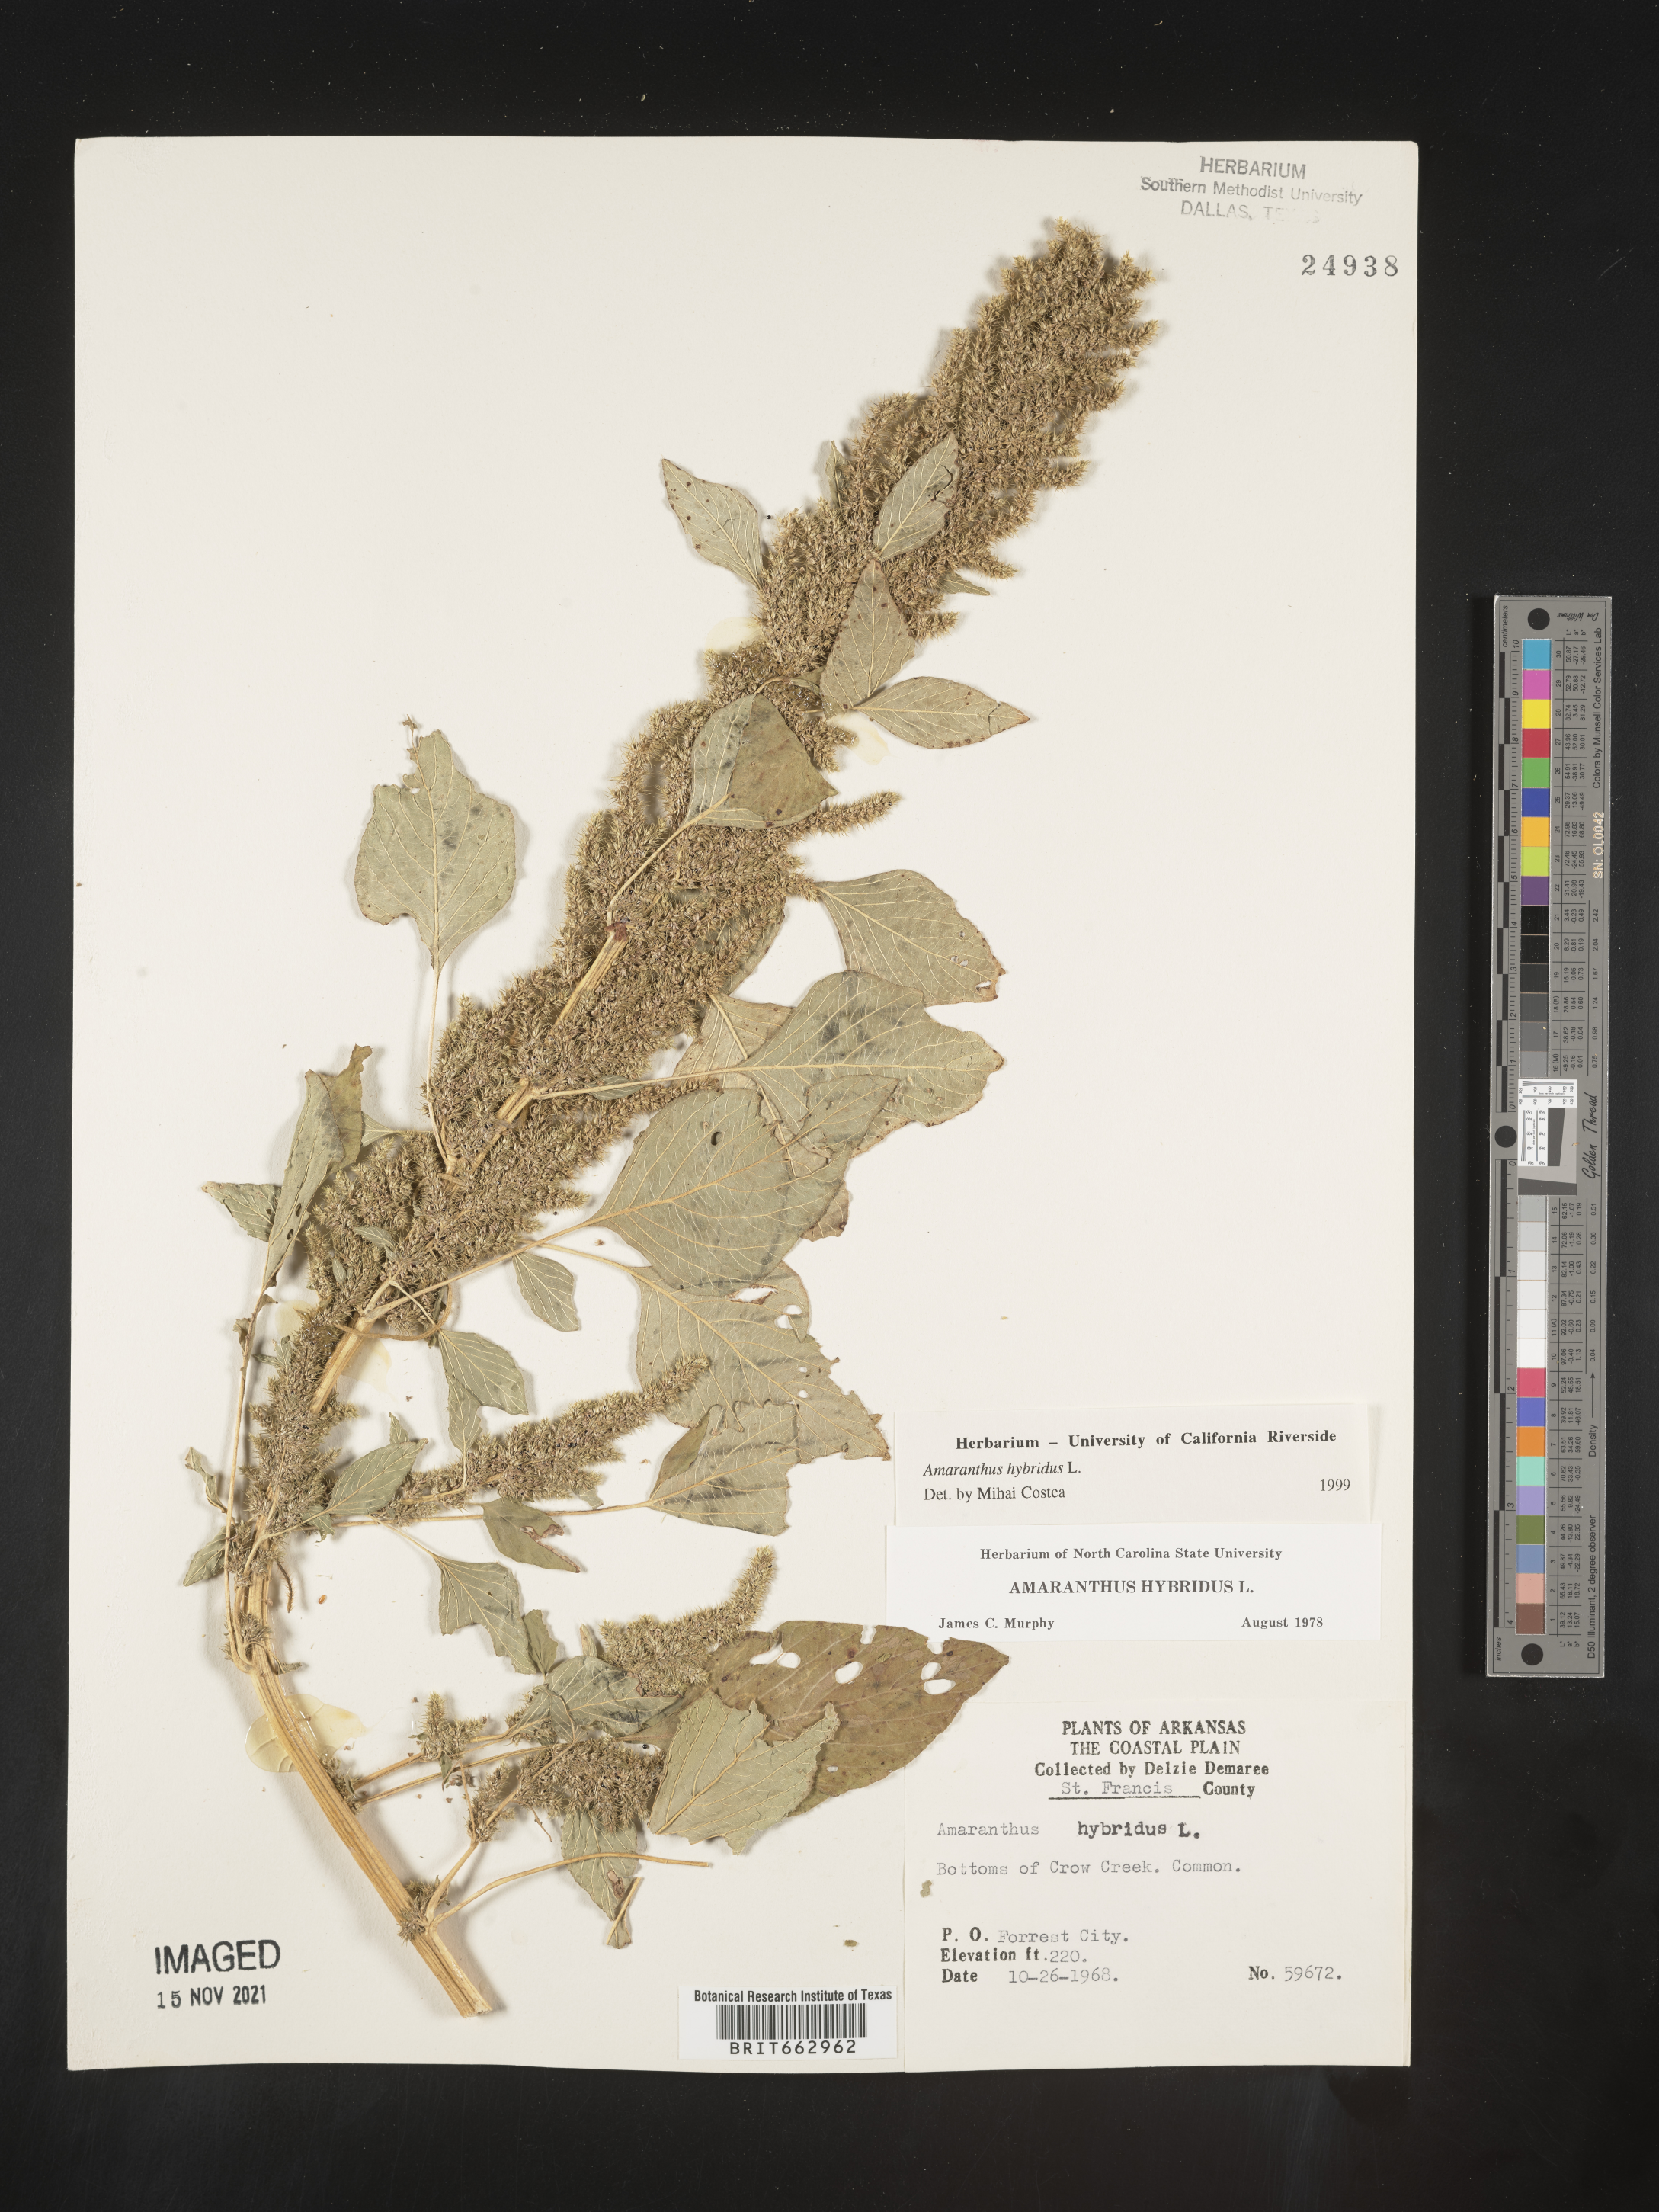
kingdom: Plantae
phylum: Tracheophyta
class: Magnoliopsida
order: Caryophyllales
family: Amaranthaceae
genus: Amaranthus
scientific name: Amaranthus hybridus
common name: Green amaranth
